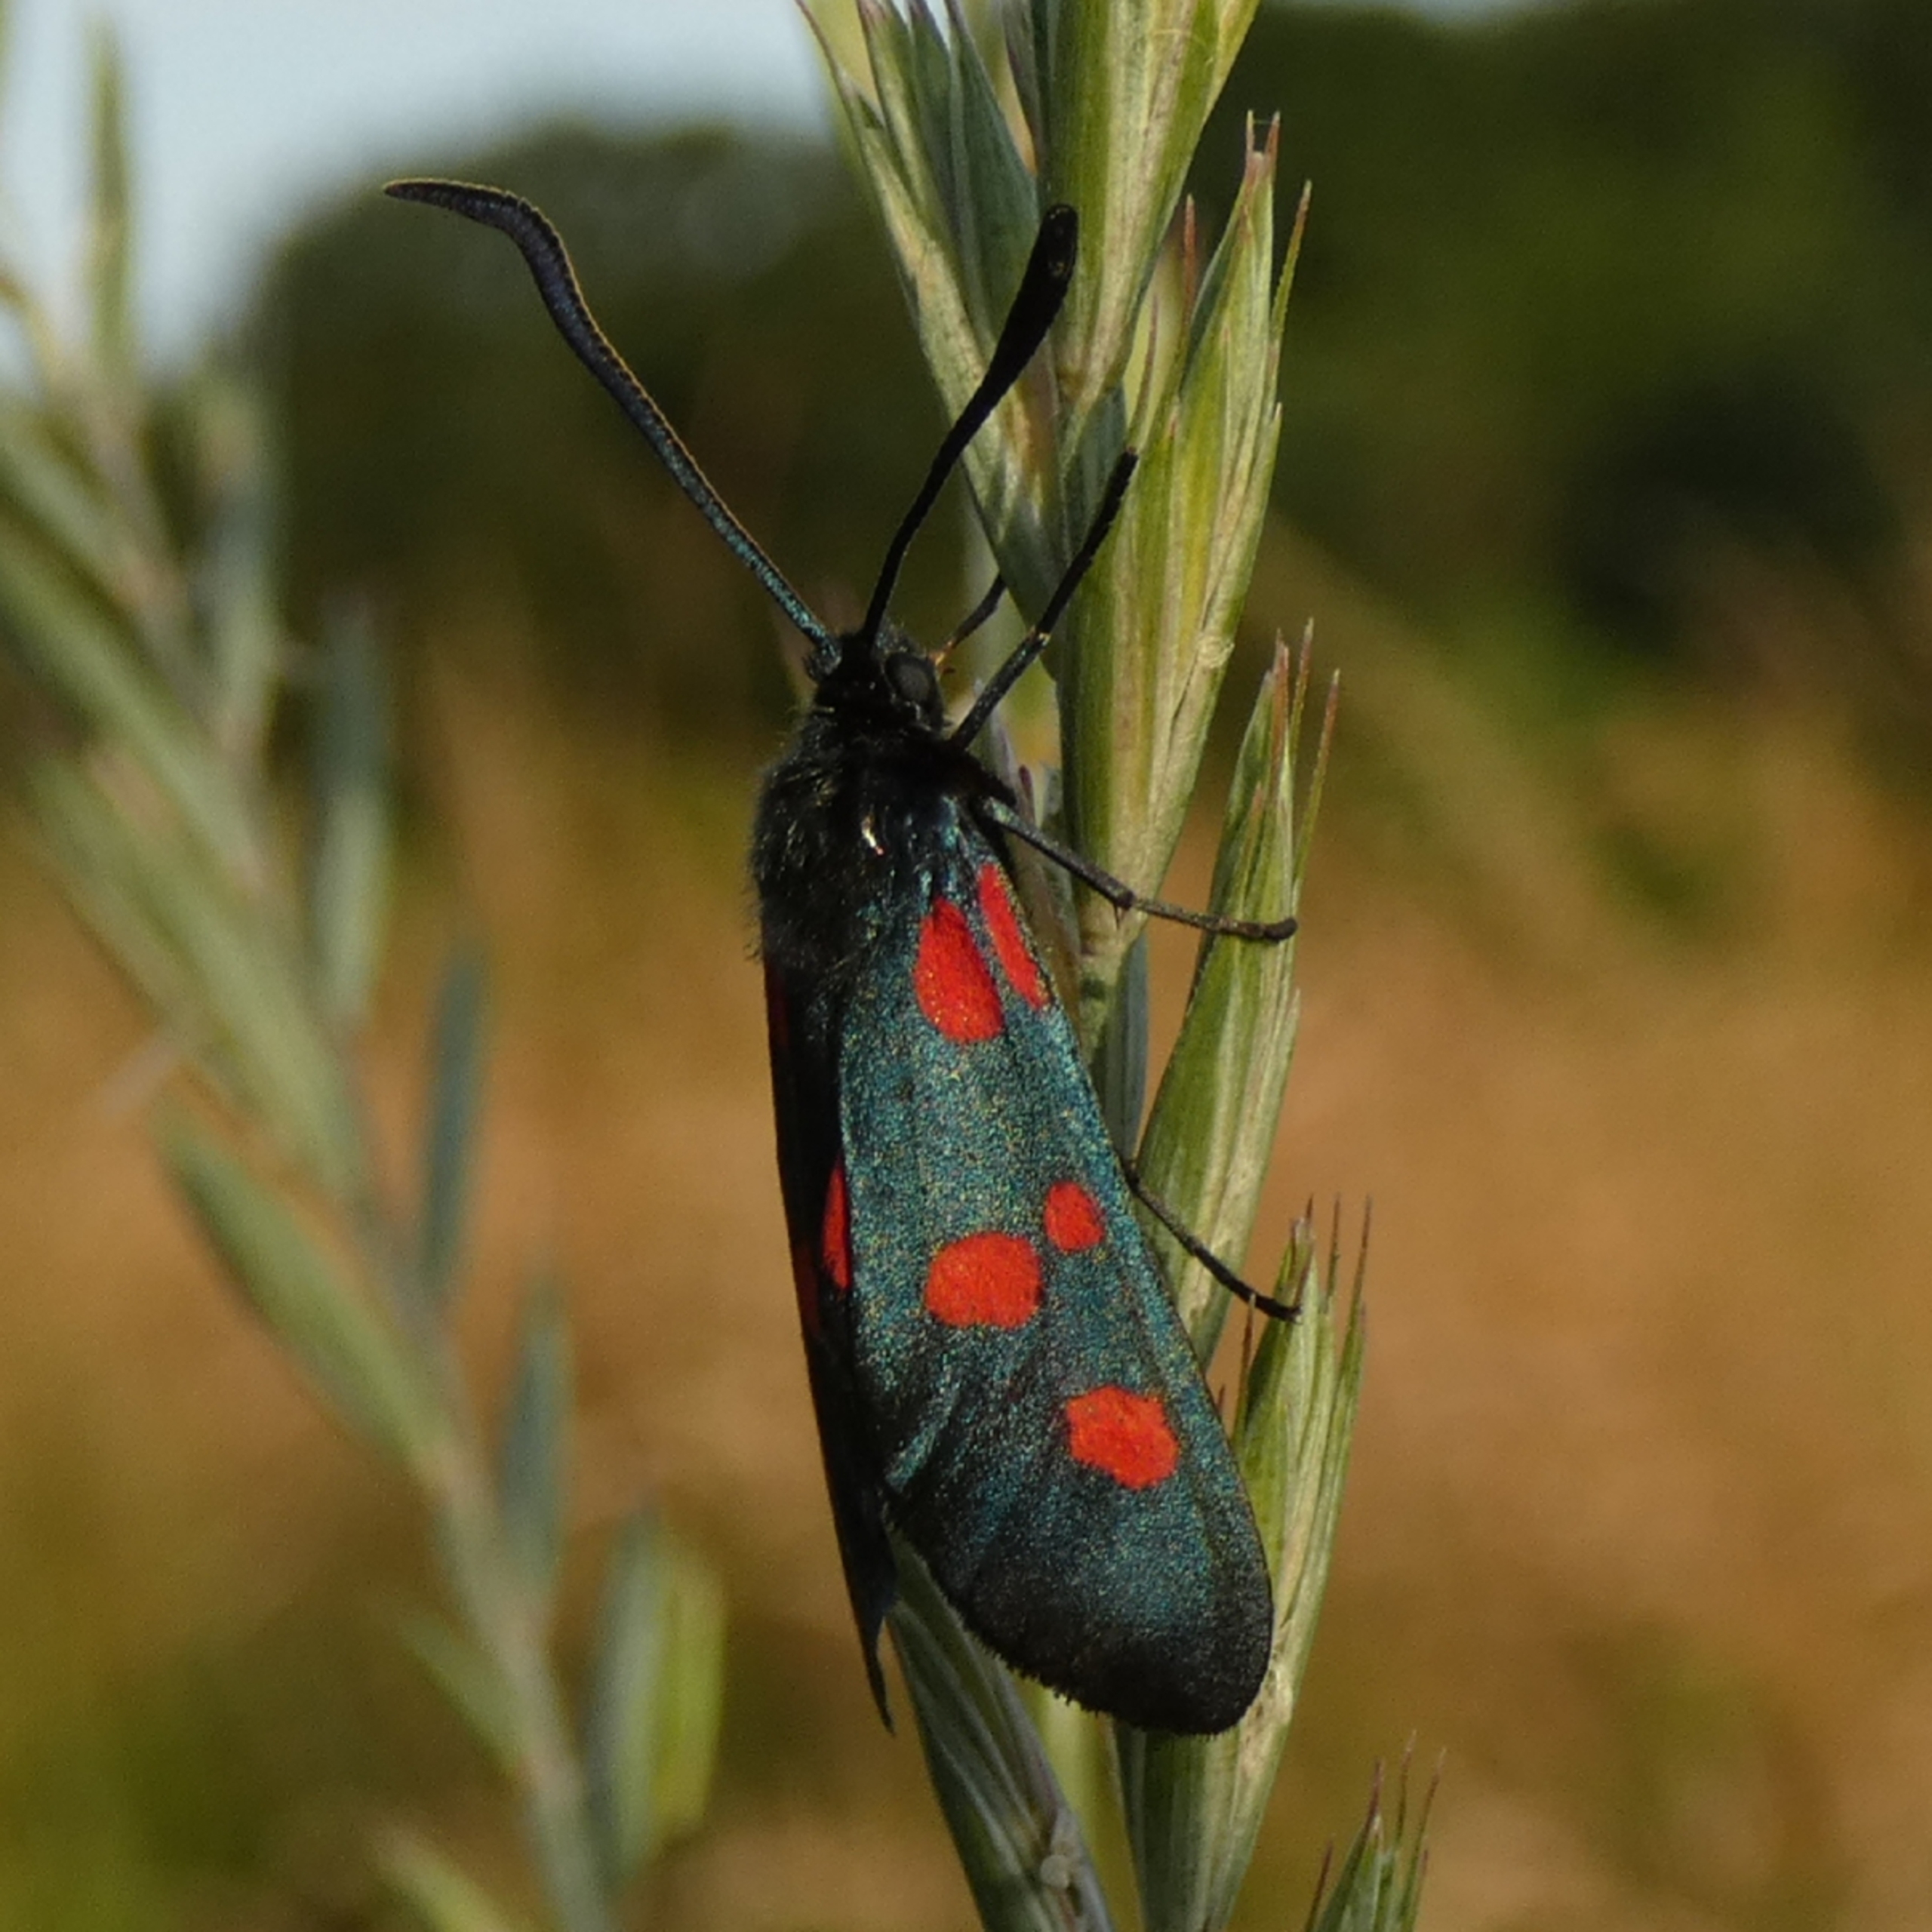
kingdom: Animalia
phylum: Arthropoda
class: Insecta
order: Lepidoptera
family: Zygaenidae
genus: Zygaena
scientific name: Zygaena lonicerae
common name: Femplettet køllesværmer
